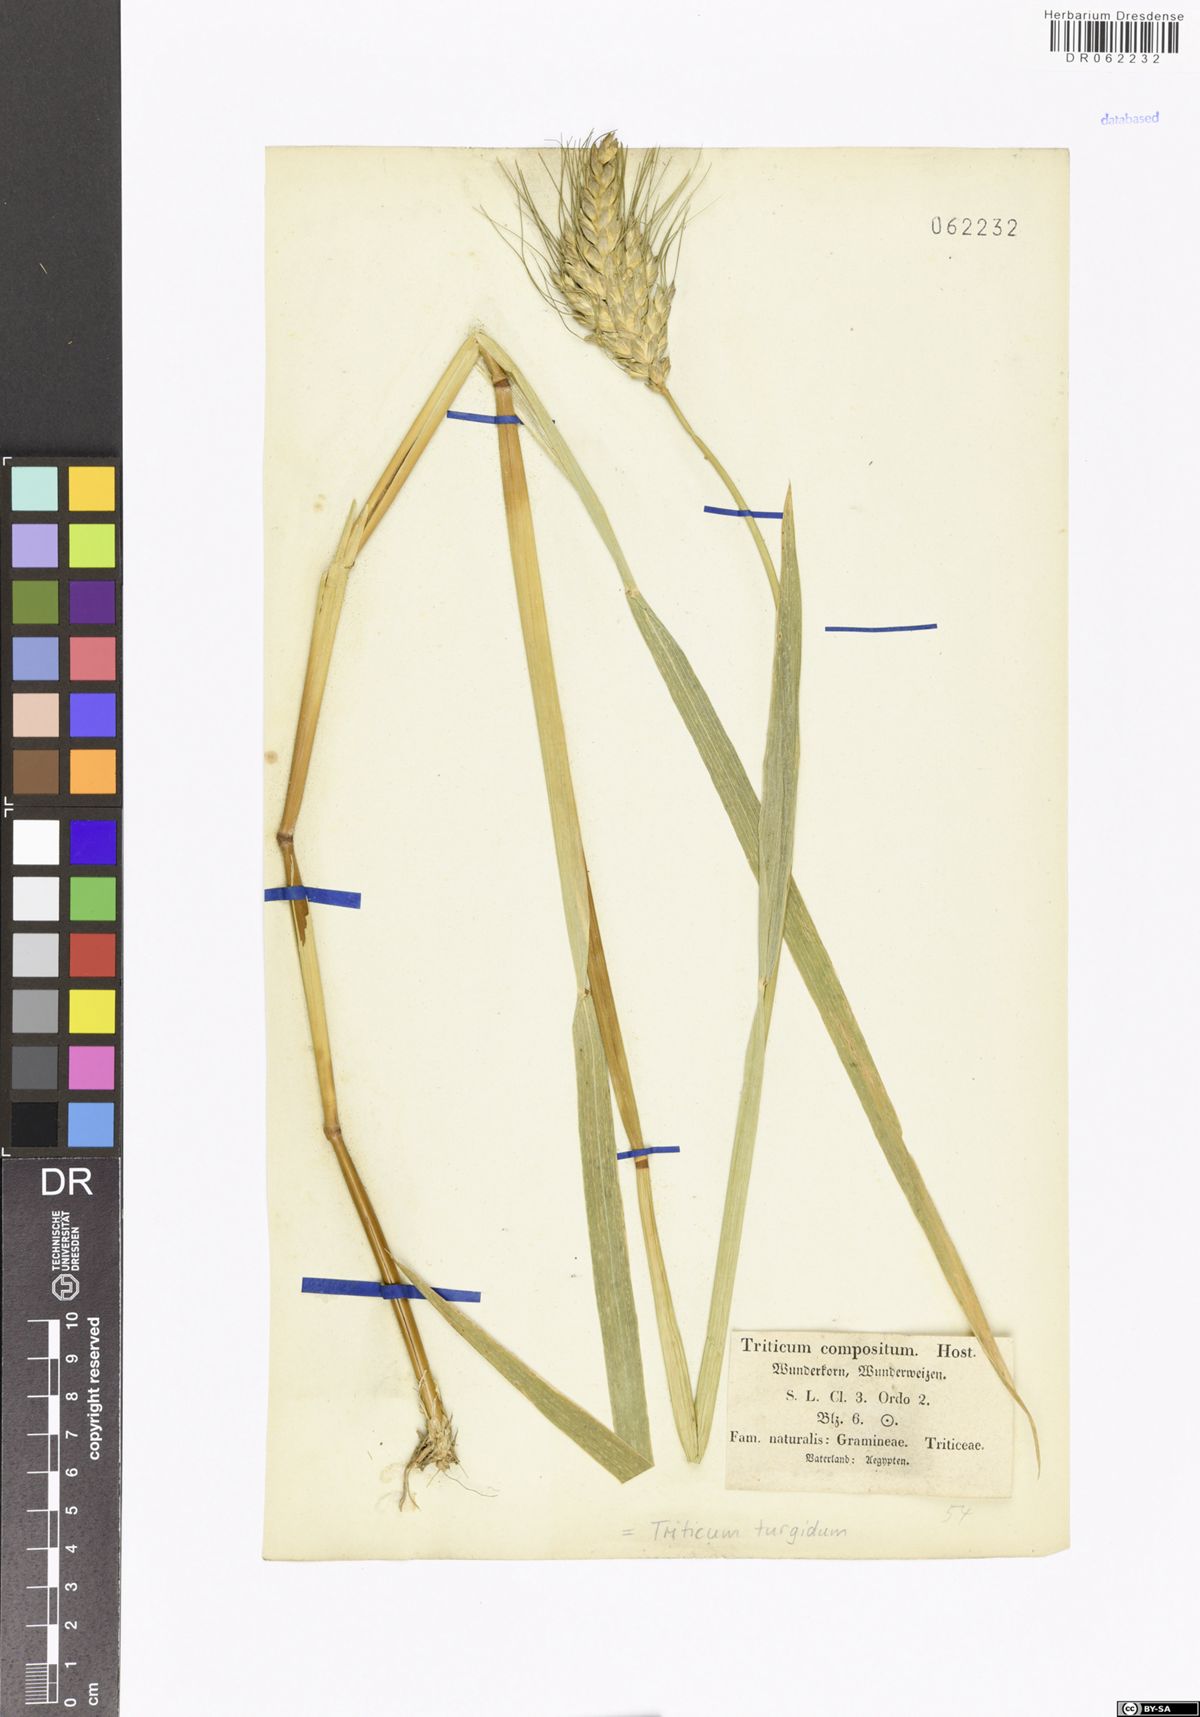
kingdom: Plantae
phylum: Tracheophyta
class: Liliopsida
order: Poales
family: Poaceae
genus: Triticum
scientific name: Triticum turgidum
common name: Rivet wheat
